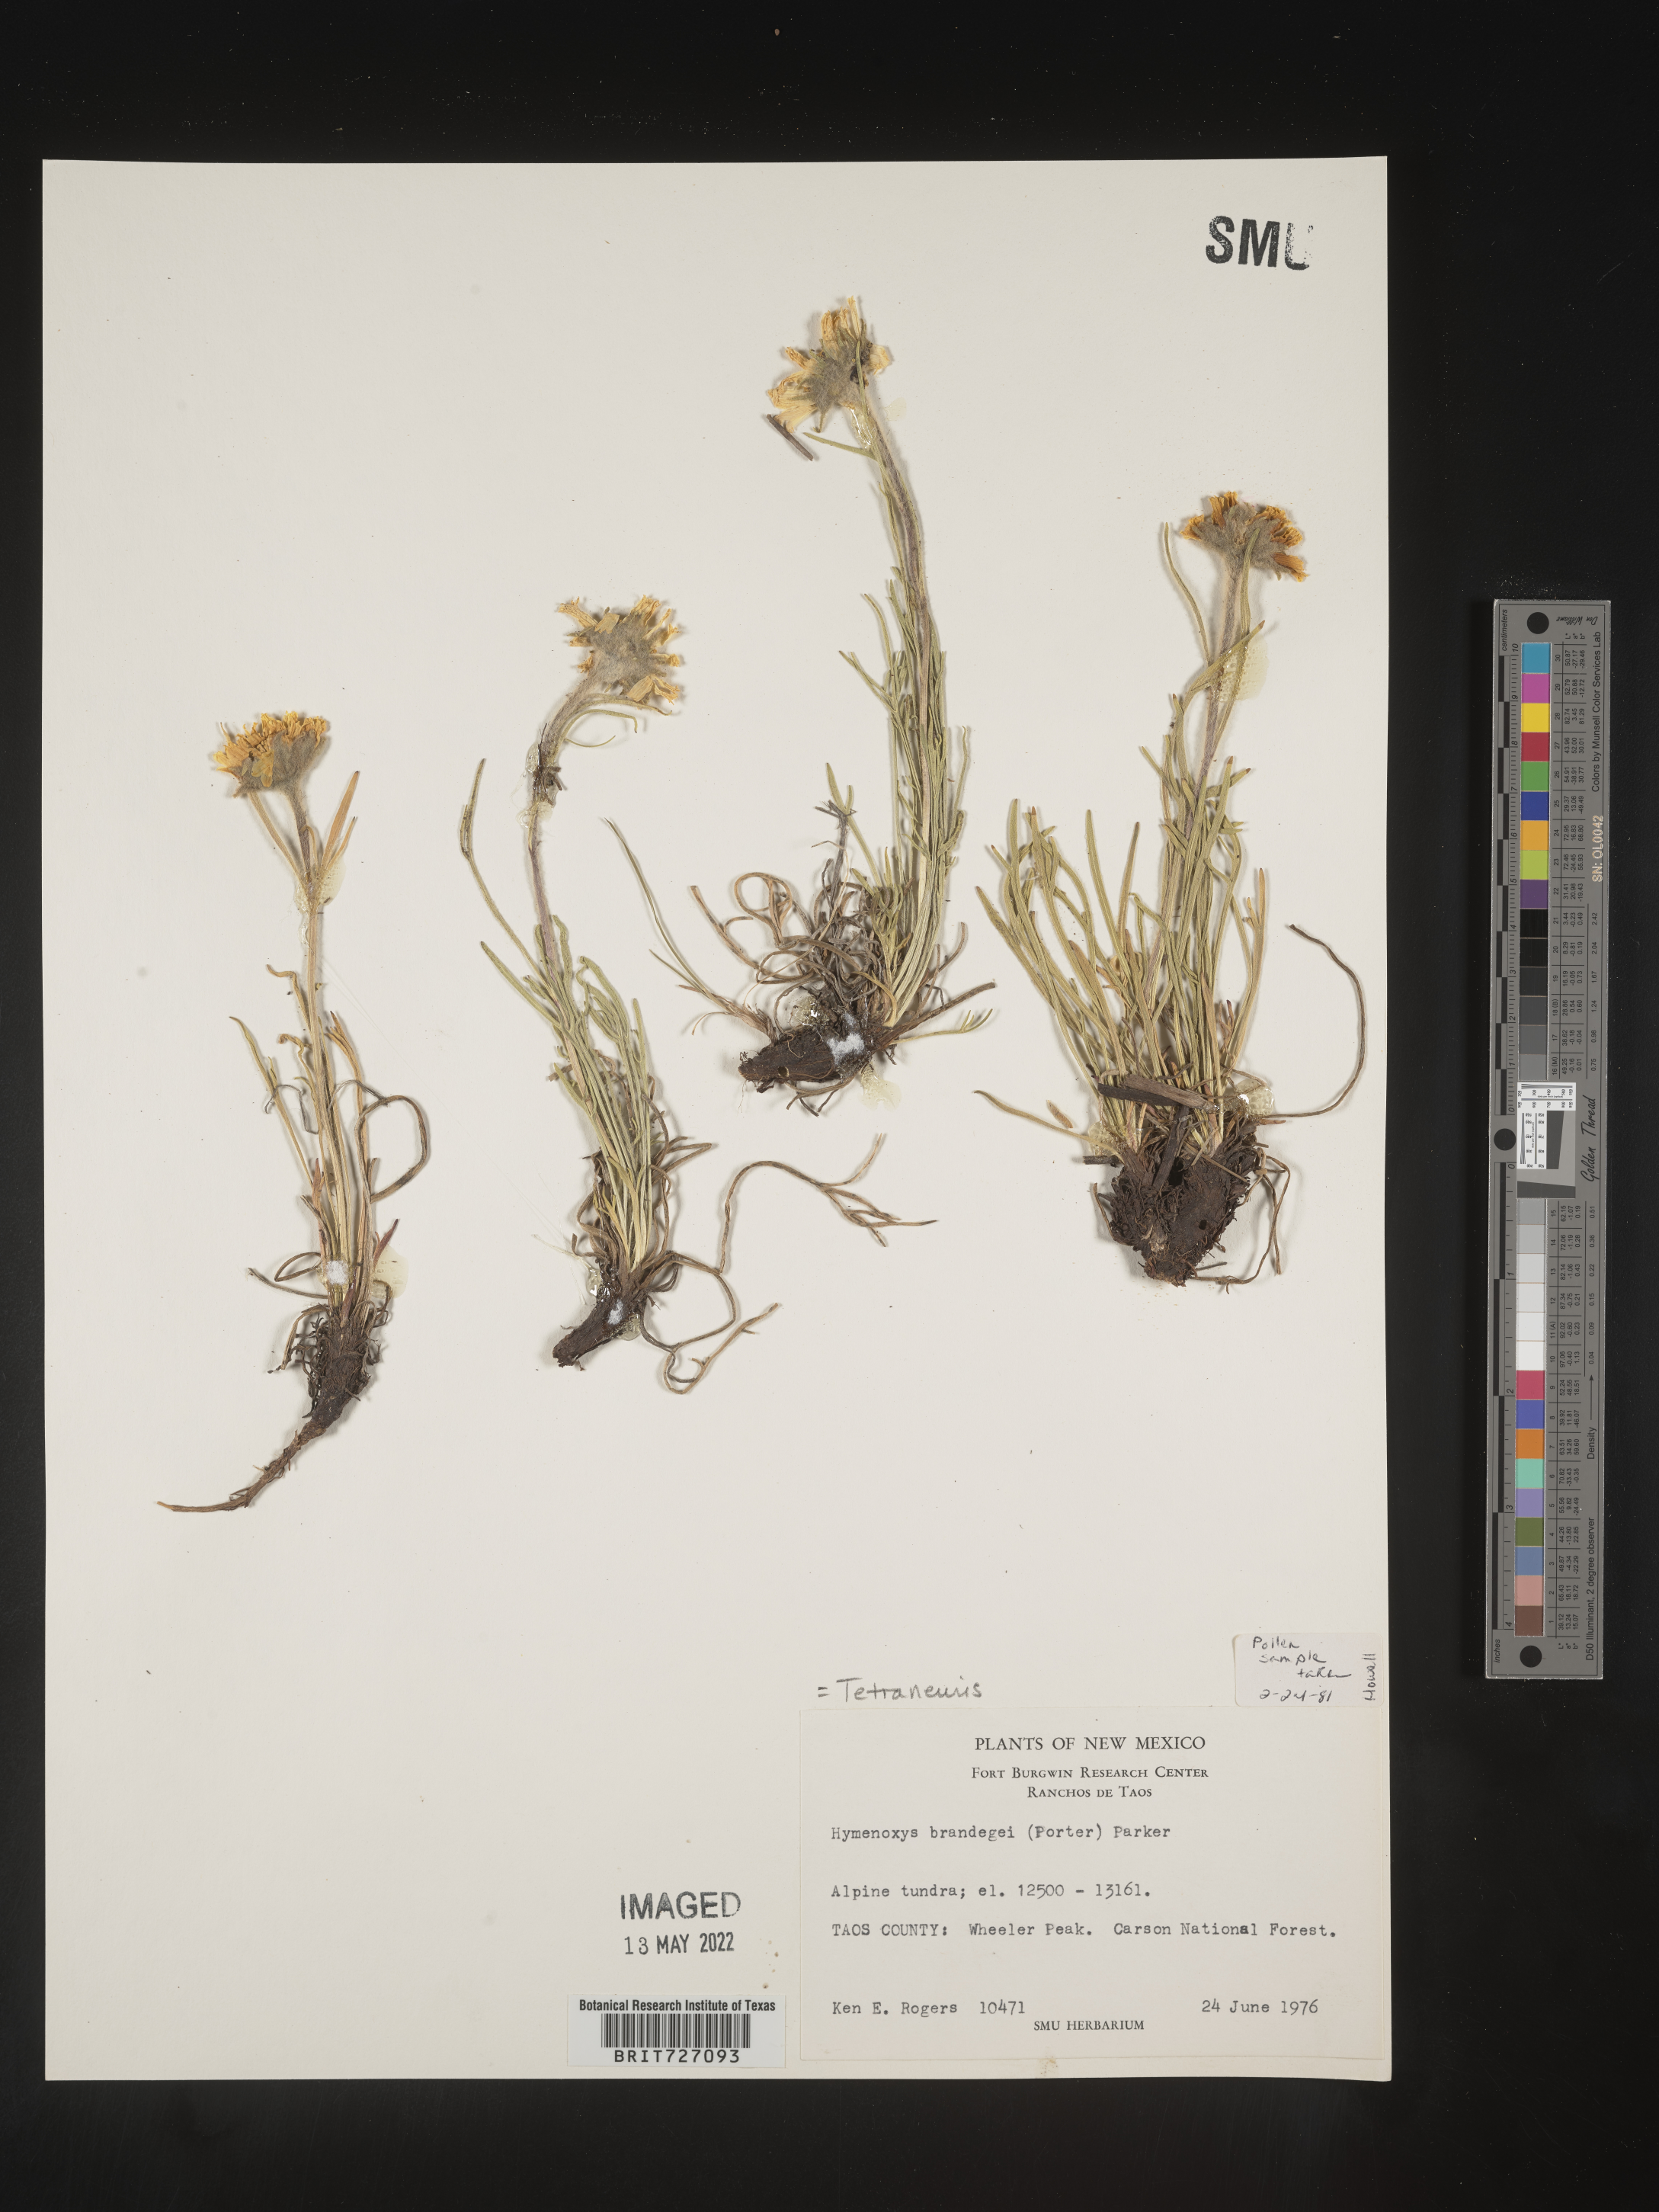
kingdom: Plantae
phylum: Tracheophyta
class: Magnoliopsida
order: Asterales
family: Asteraceae
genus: Hymenoxys
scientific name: Hymenoxys brandegeei
